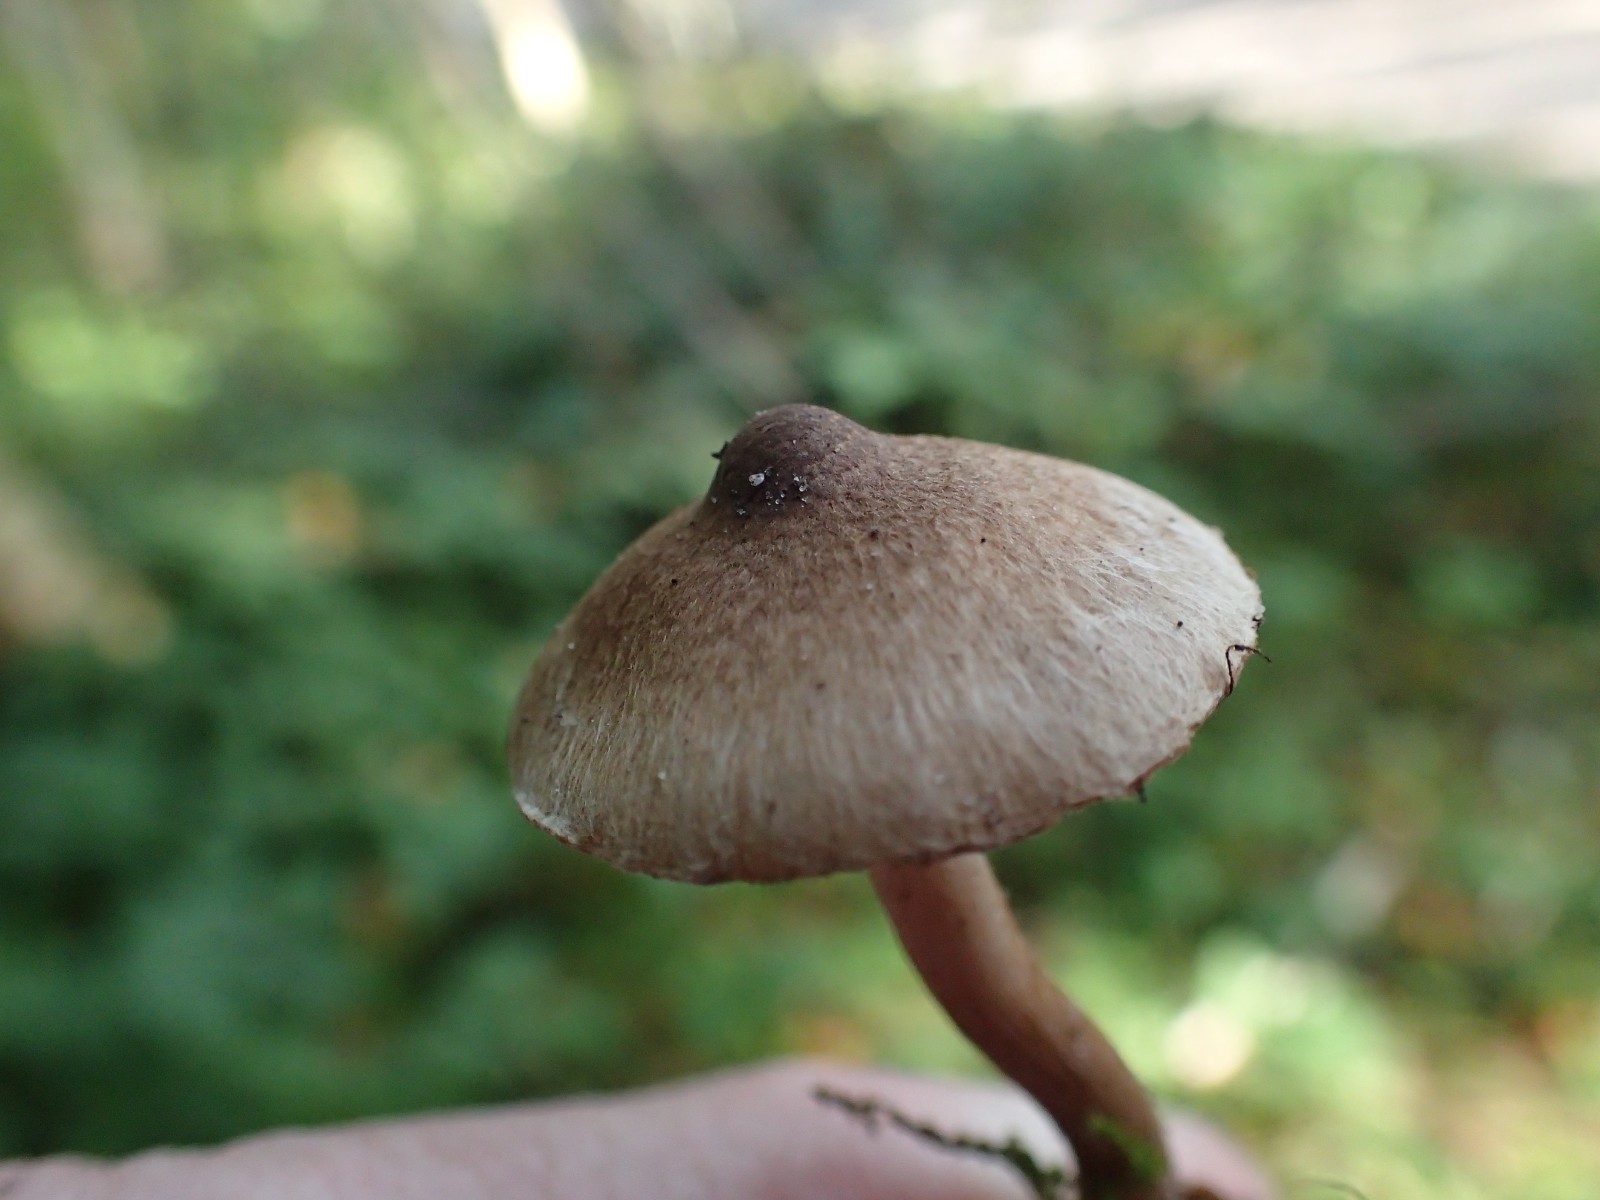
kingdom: Fungi
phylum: Basidiomycota
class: Agaricomycetes
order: Agaricales
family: Inocybaceae
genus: Inocybe
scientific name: Inocybe
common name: trævlhat
